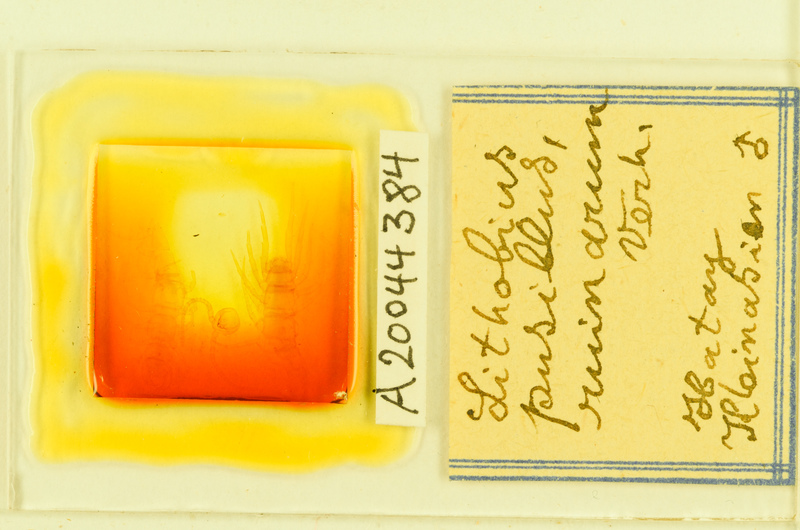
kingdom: Animalia
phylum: Arthropoda
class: Chilopoda
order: Lithobiomorpha
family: Lithobiidae
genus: Lithobius
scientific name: Lithobius
